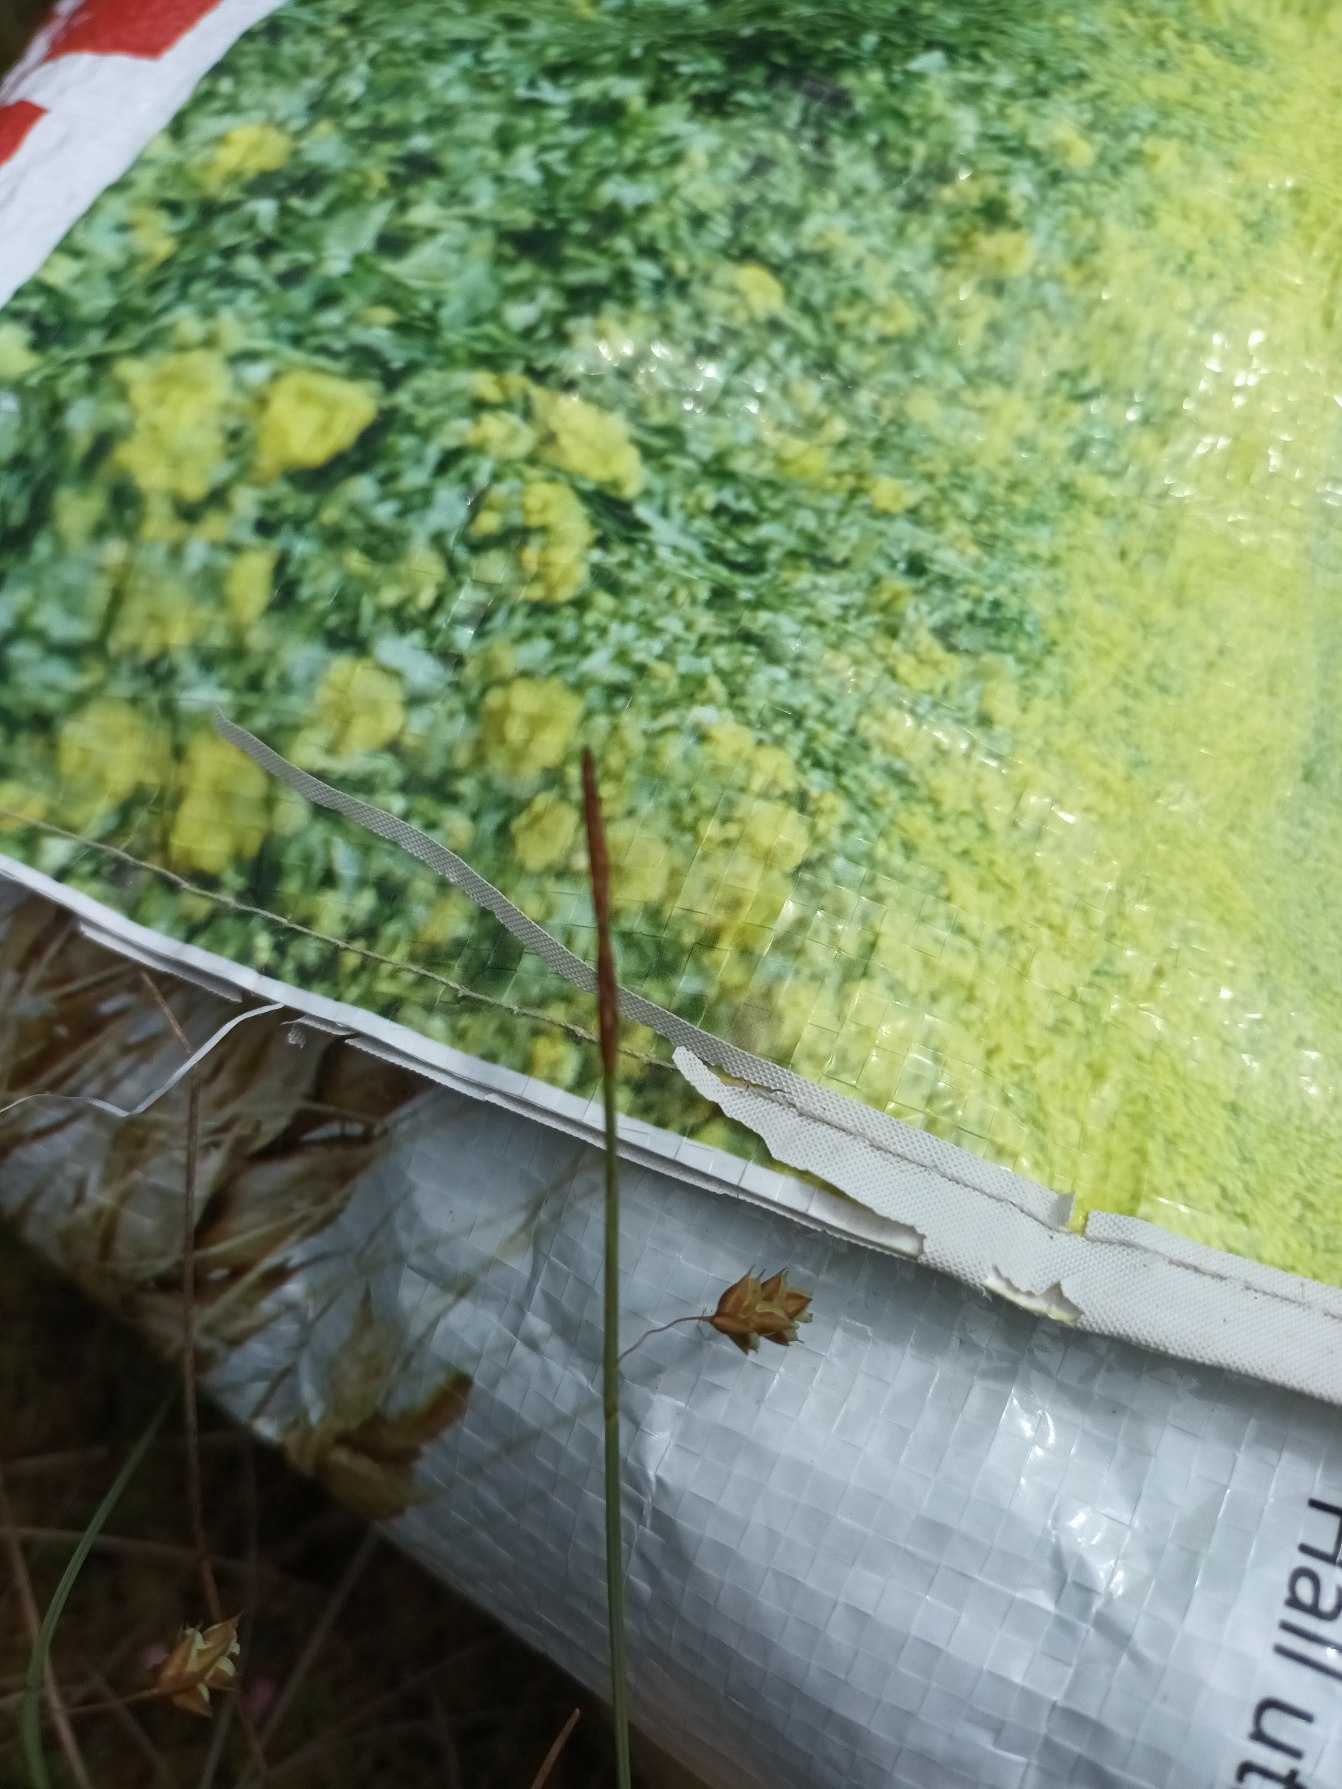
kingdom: Plantae
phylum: Tracheophyta
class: Liliopsida
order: Poales
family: Cyperaceae
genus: Carex
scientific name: Carex limosa
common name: Dynd-star
